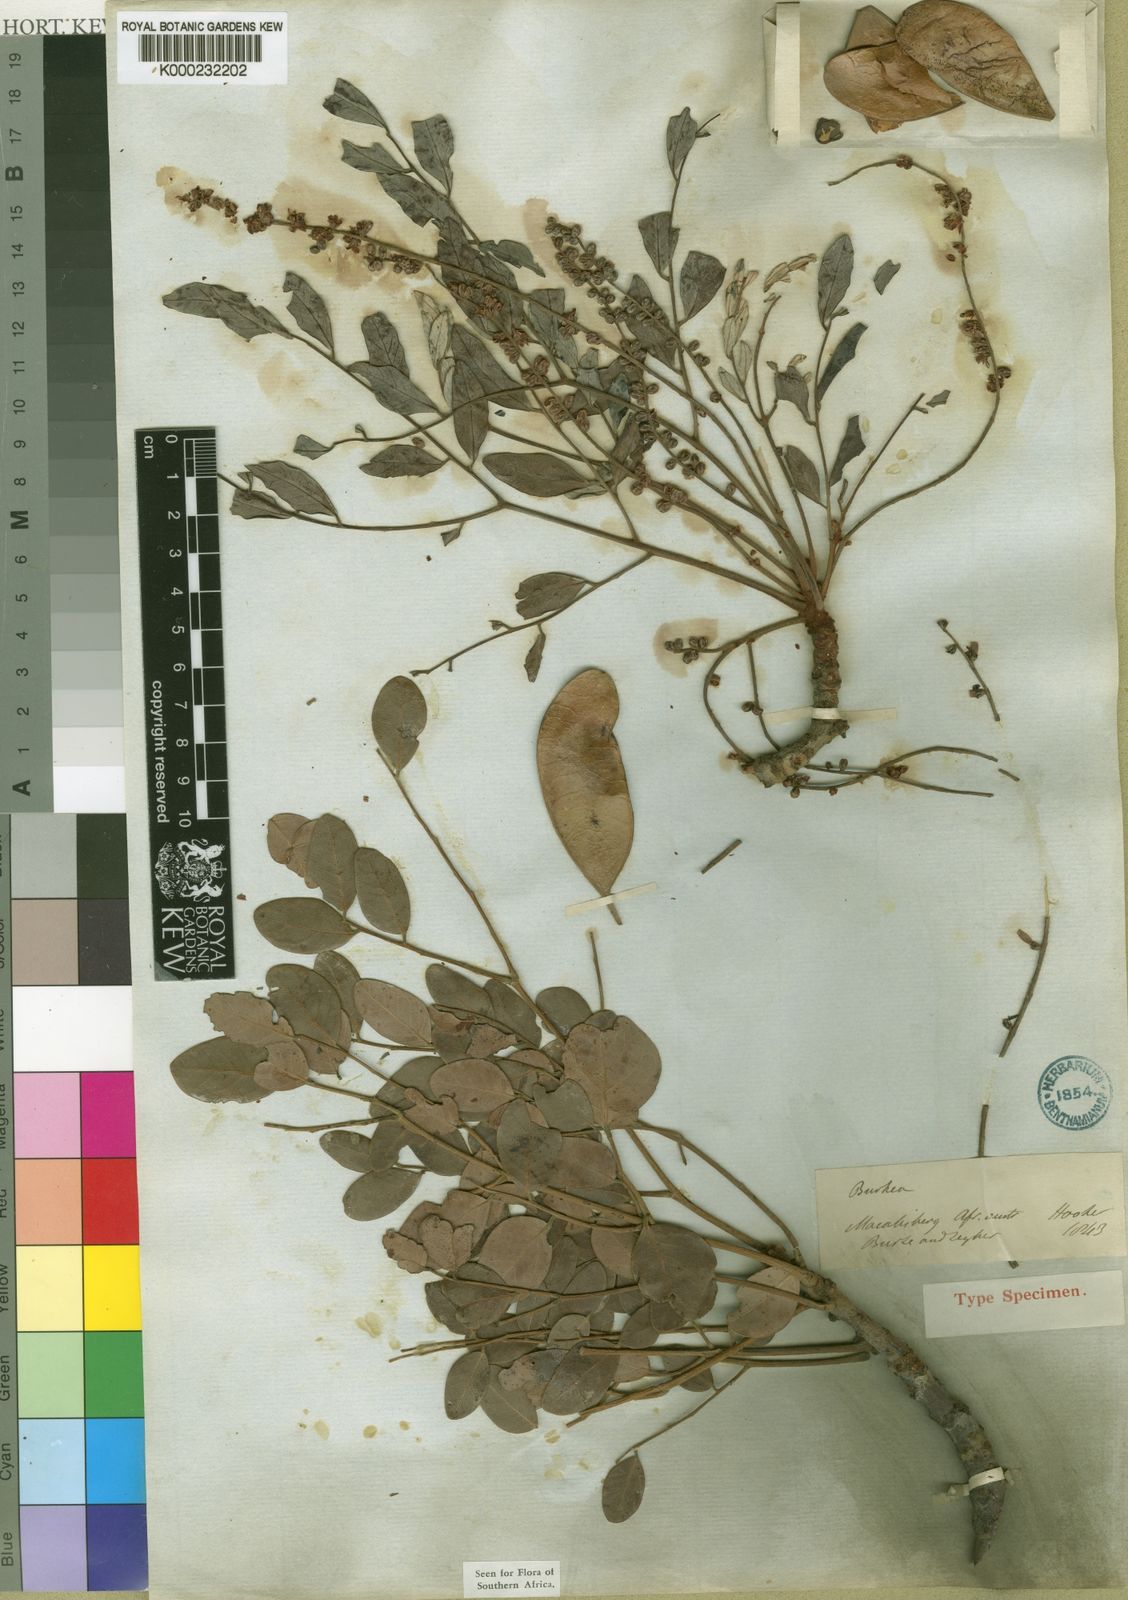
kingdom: Plantae
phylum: Tracheophyta
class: Magnoliopsida
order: Fabales
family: Fabaceae
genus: Burkea
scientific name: Burkea africana
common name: Mkalati tree
